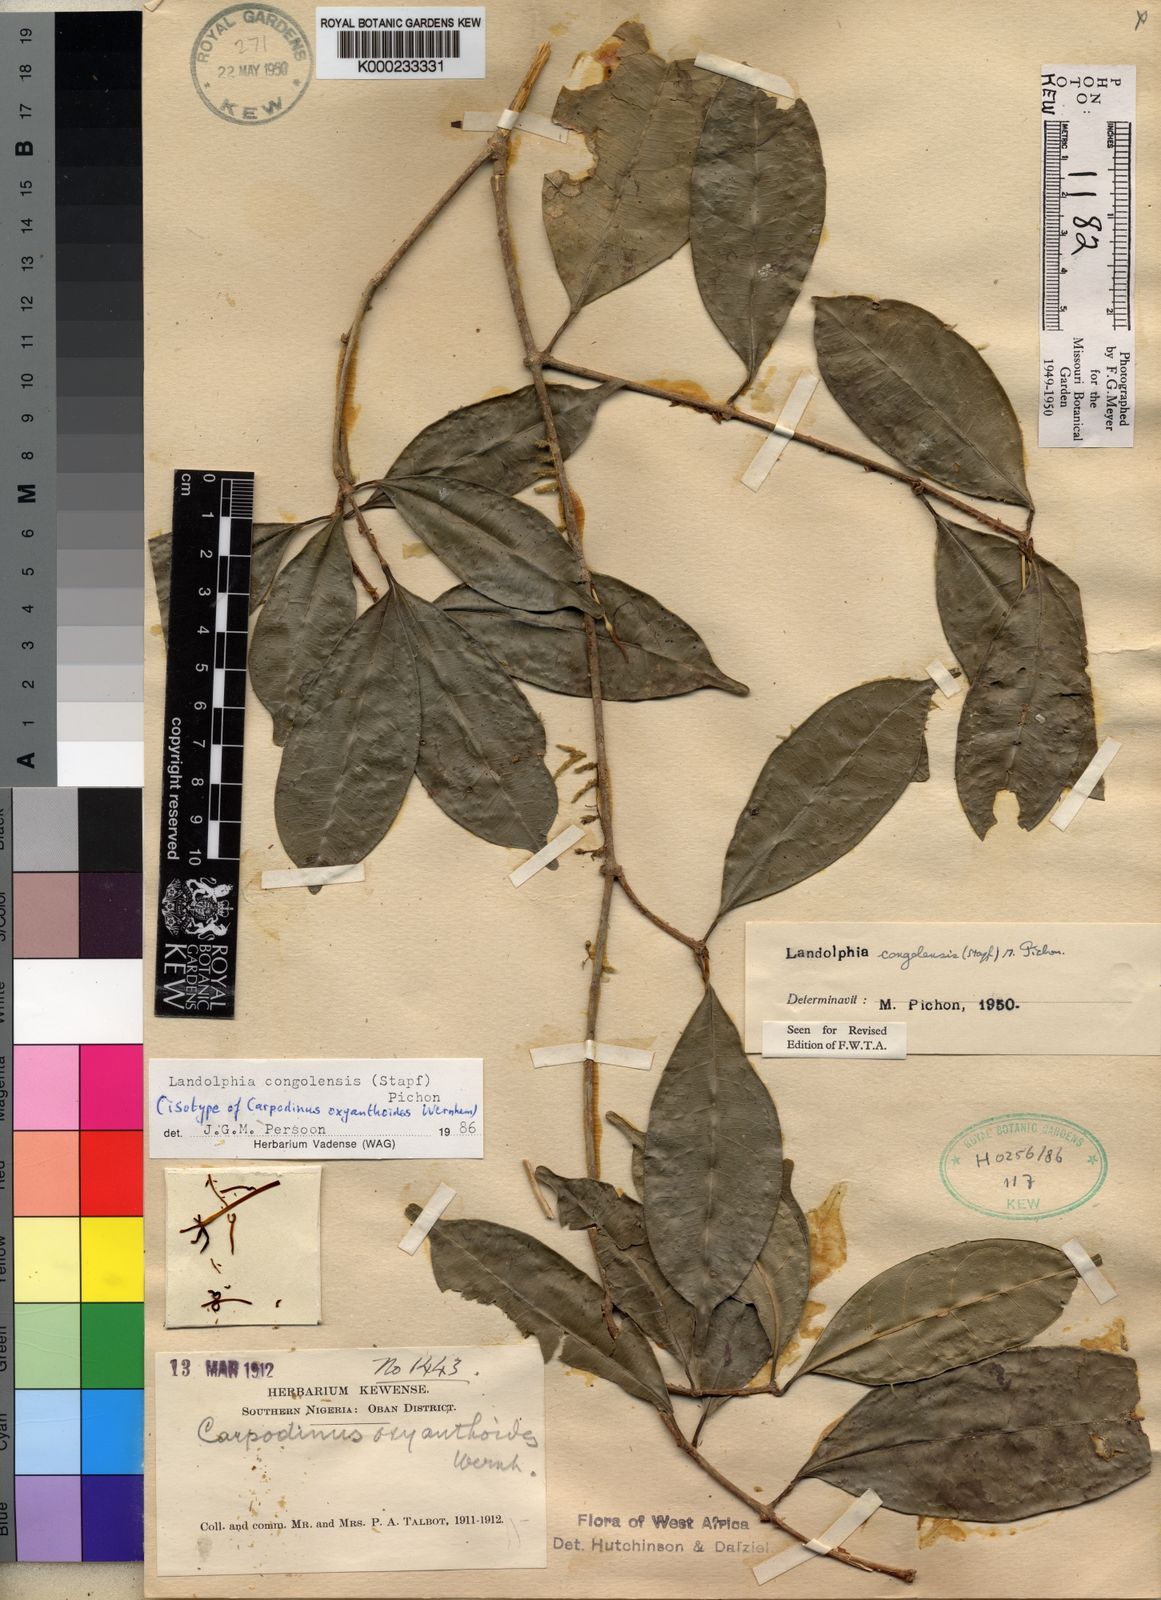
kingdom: Plantae
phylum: Tracheophyta
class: Magnoliopsida
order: Gentianales
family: Apocynaceae
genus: Landolphia
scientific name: Landolphia congolensis
